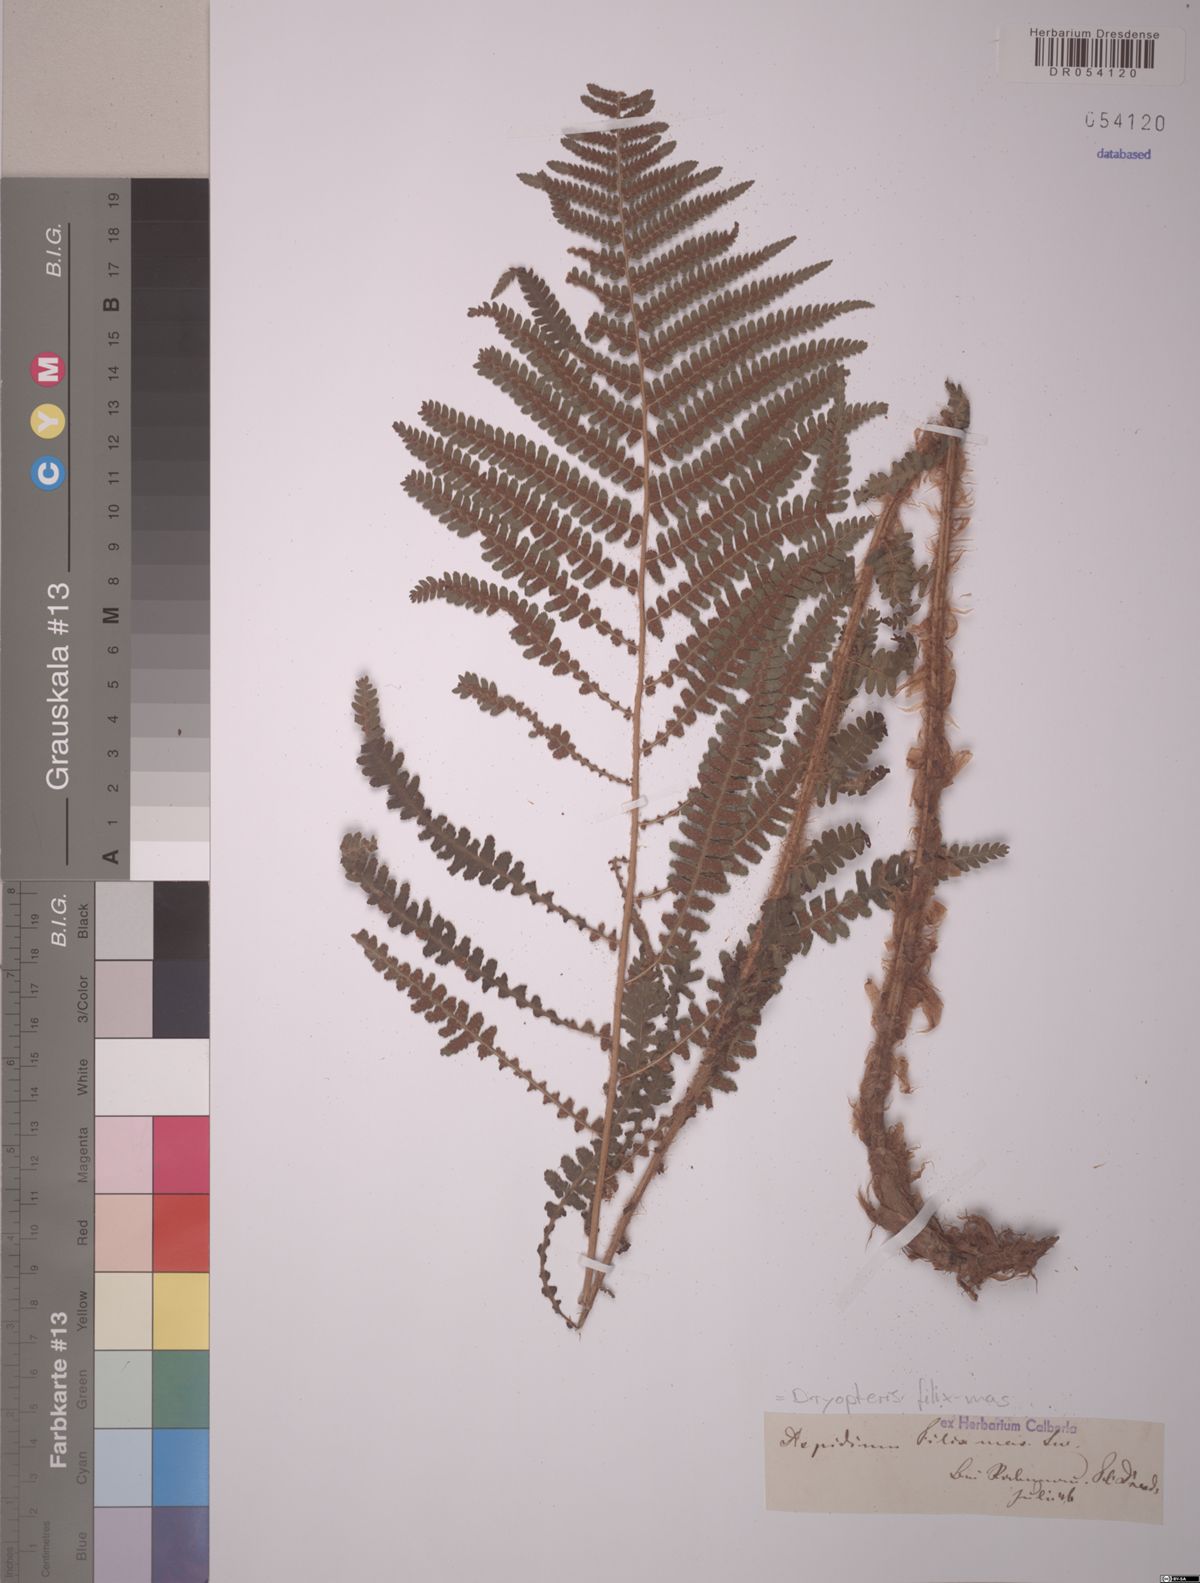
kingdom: Plantae
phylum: Tracheophyta
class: Polypodiopsida
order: Polypodiales
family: Dryopteridaceae
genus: Dryopteris
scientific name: Dryopteris filix-mas
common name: Male fern
